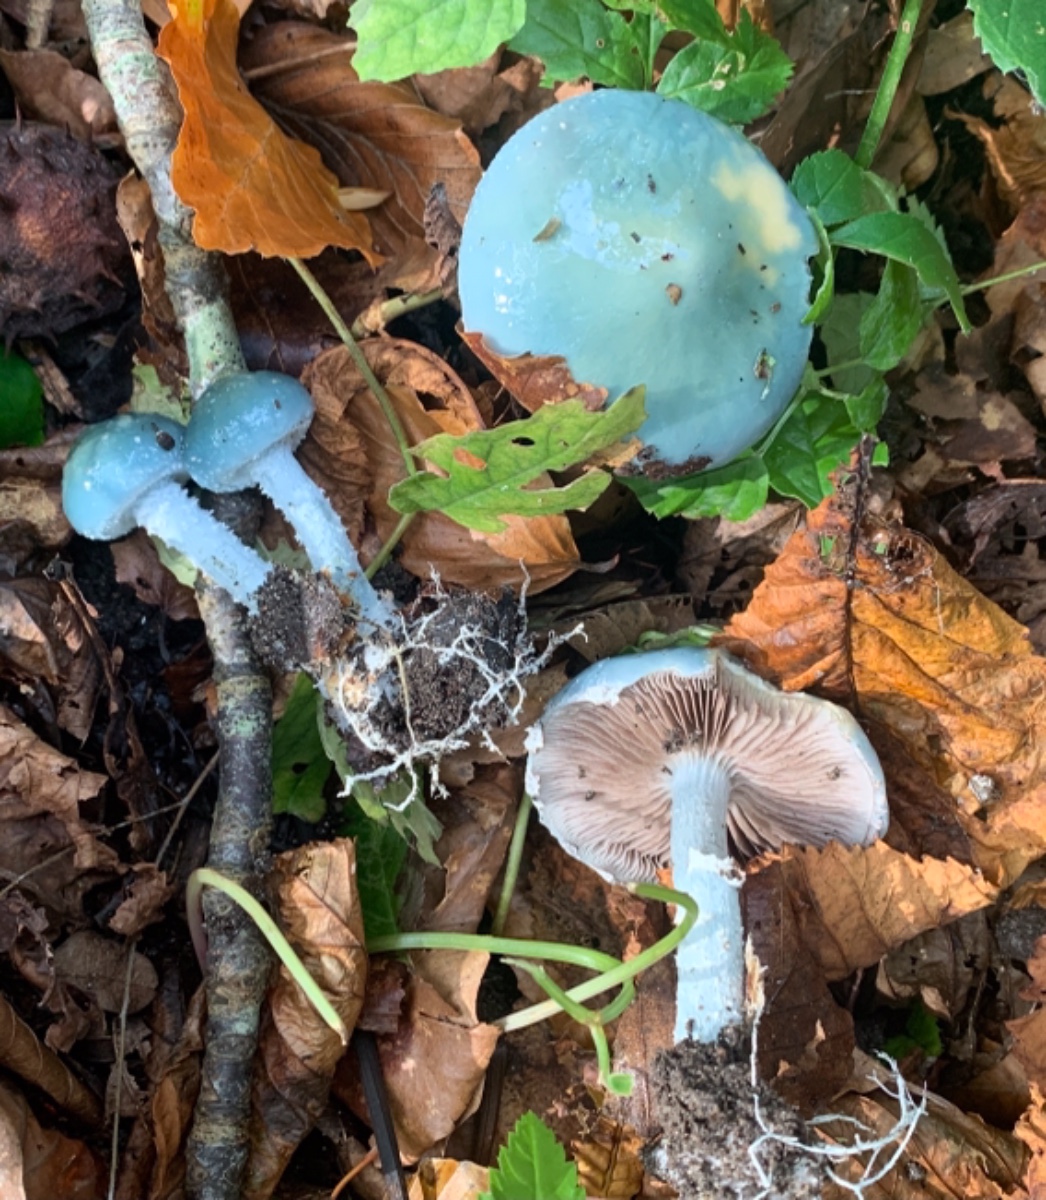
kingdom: Fungi
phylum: Basidiomycota
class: Agaricomycetes
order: Agaricales
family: Strophariaceae
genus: Stropharia
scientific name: Stropharia cyanea
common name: blågrøn bredblad
